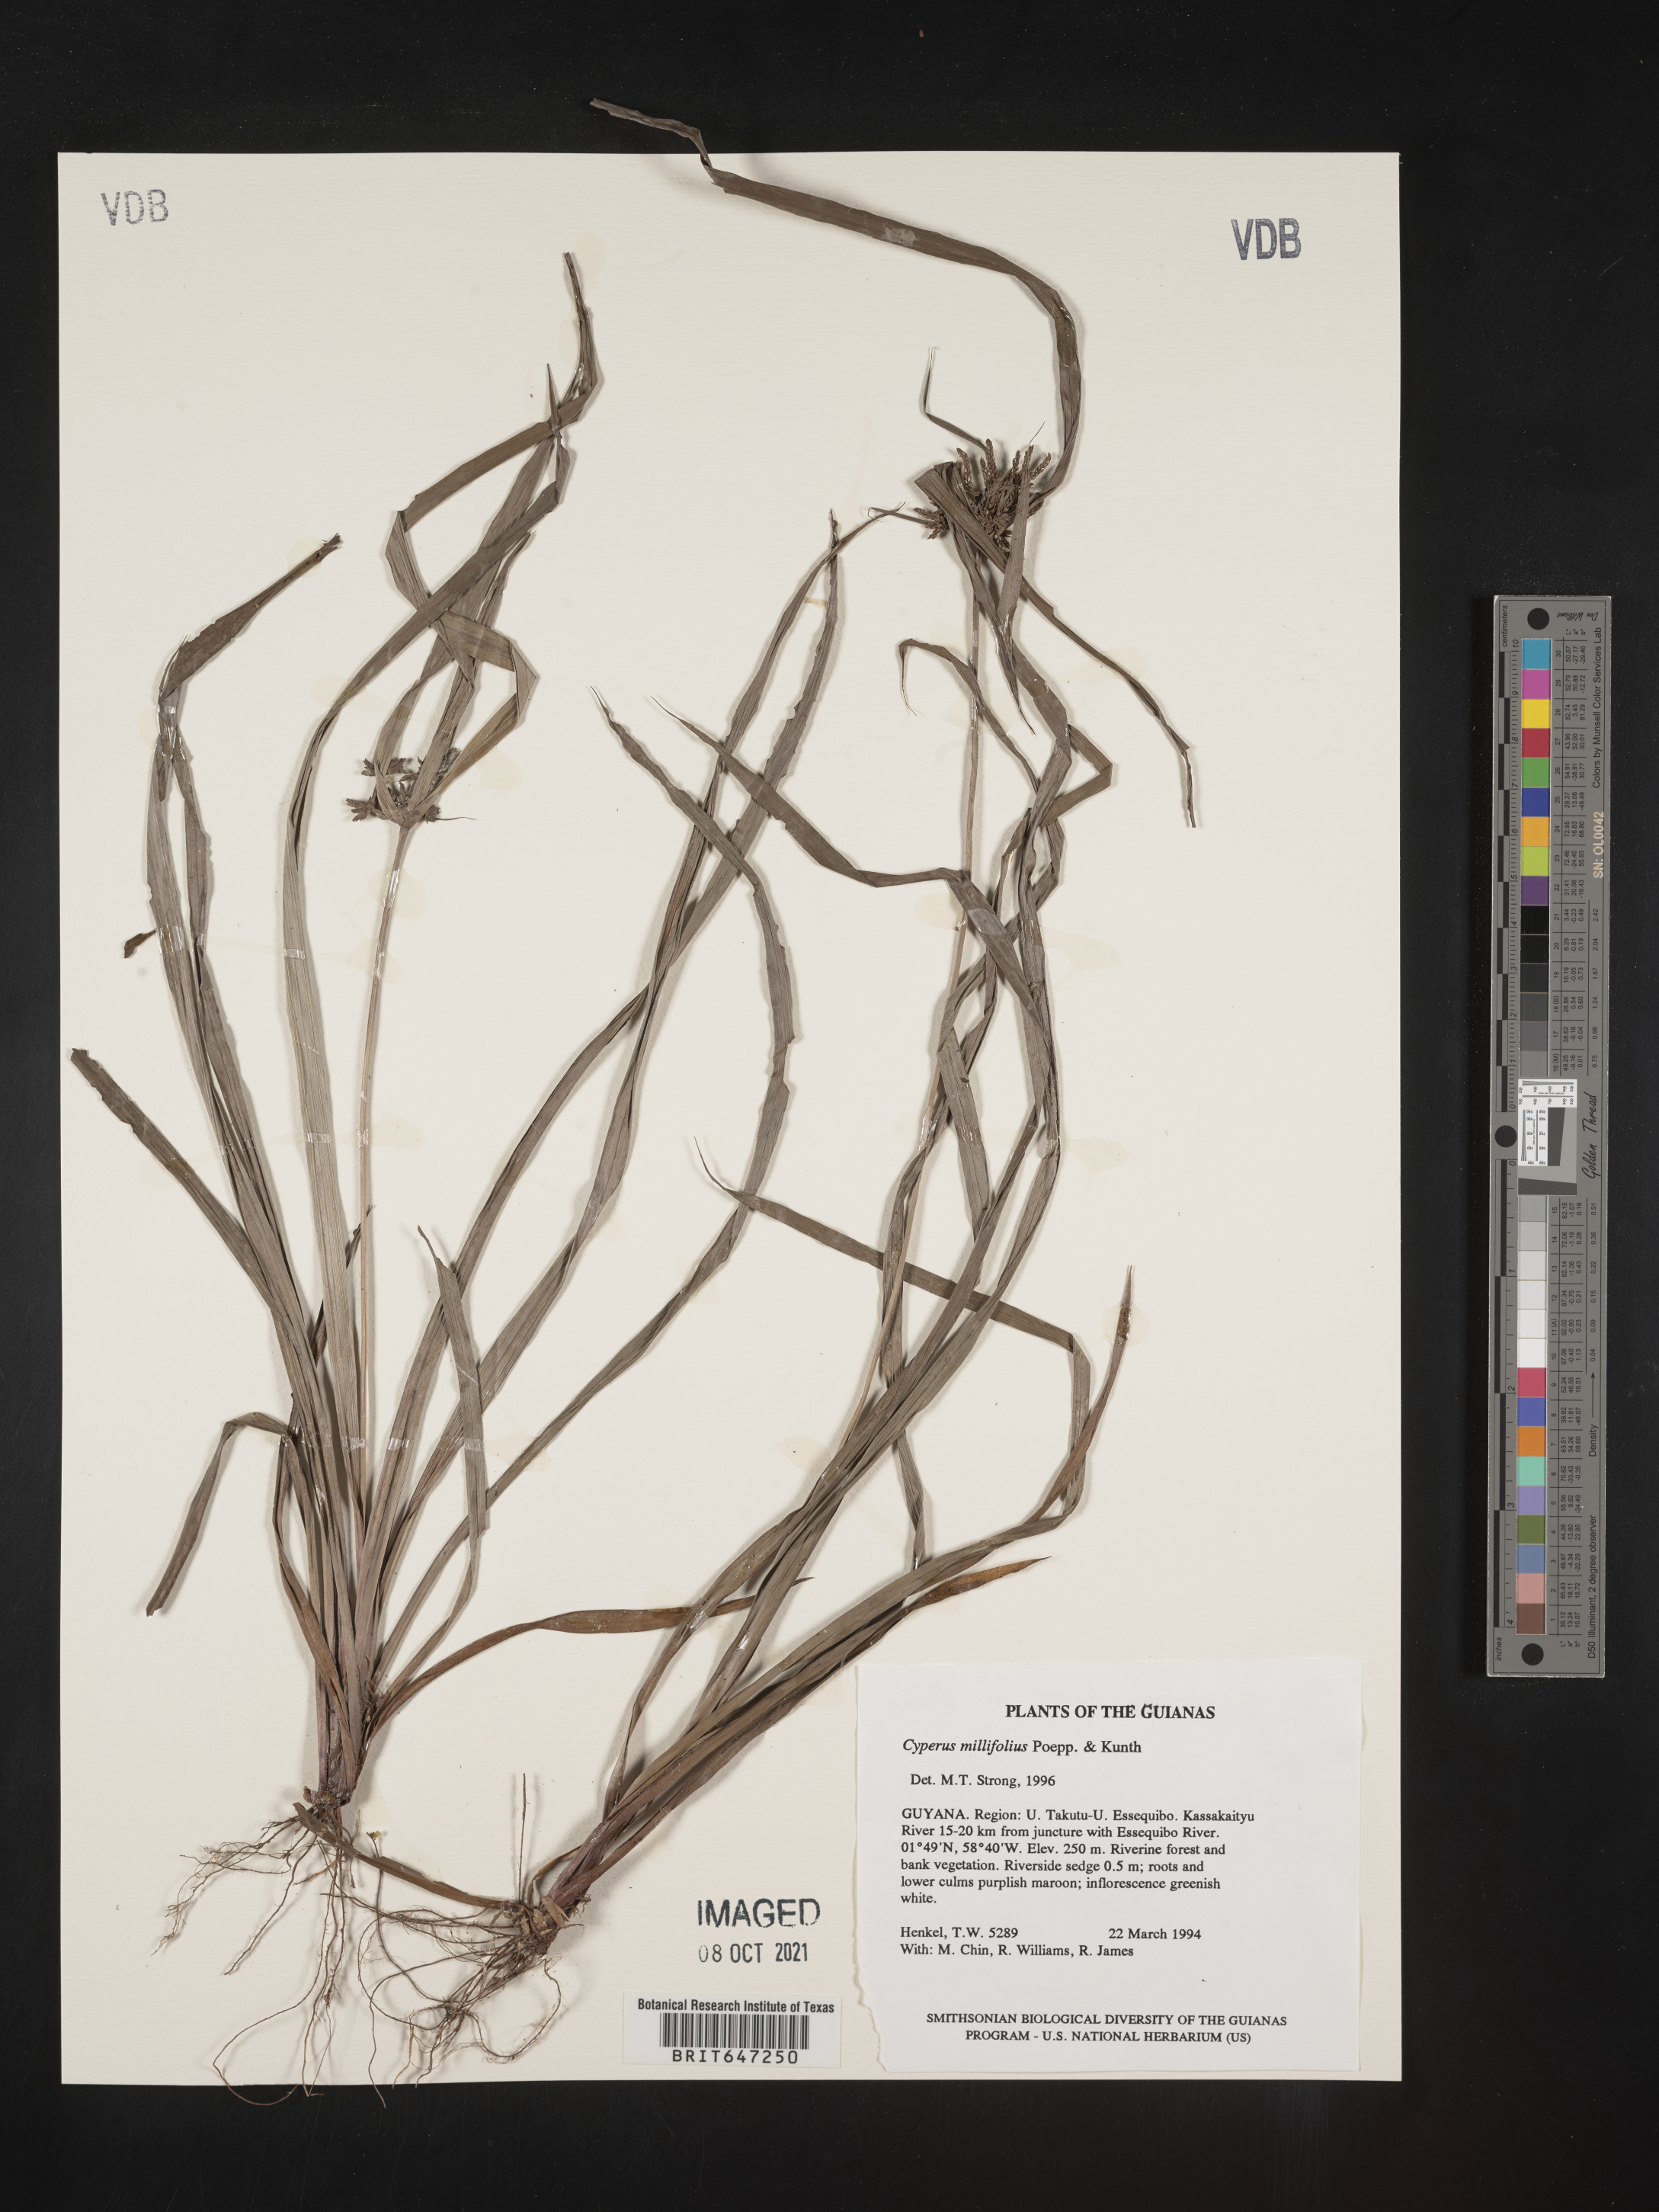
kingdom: Plantae
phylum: Tracheophyta
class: Liliopsida
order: Poales
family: Cyperaceae
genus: Cyperus
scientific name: Cyperus miliifolius
